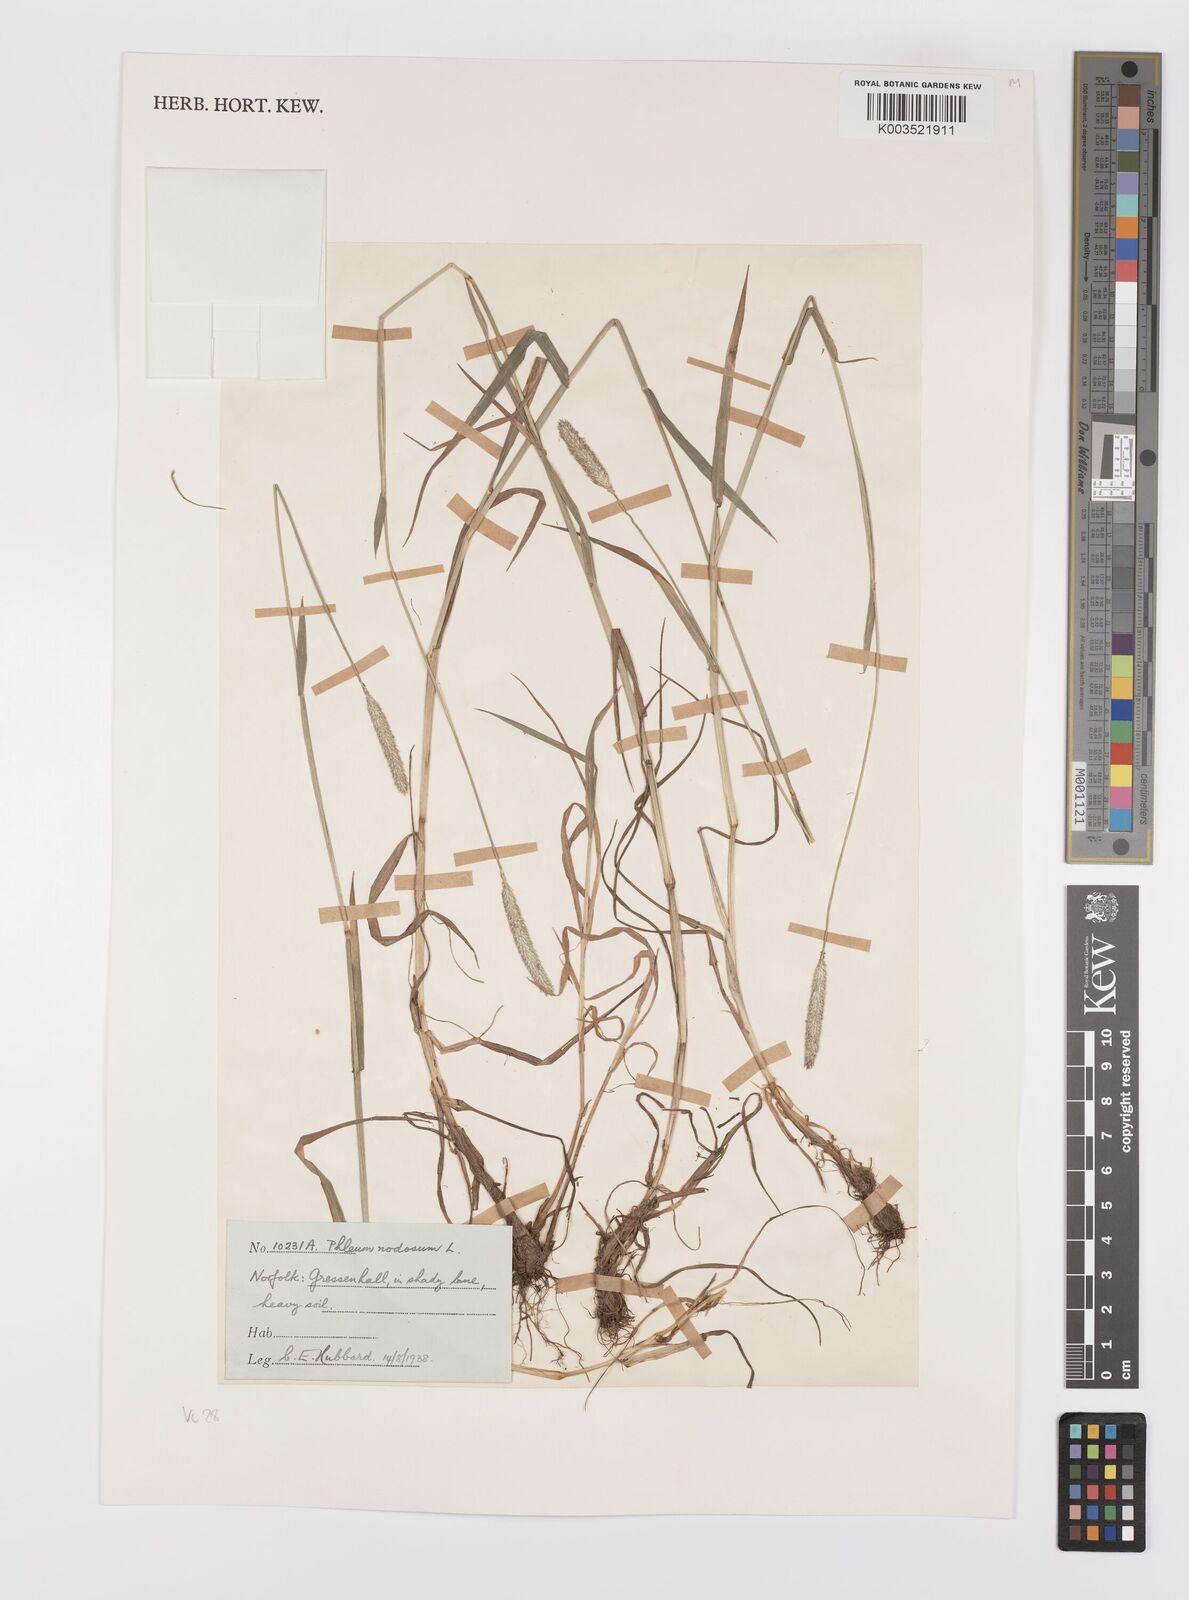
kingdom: Plantae
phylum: Tracheophyta
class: Liliopsida
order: Poales
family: Poaceae
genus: Phleum
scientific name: Phleum bertolonii
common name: Smaller cat's-tail
